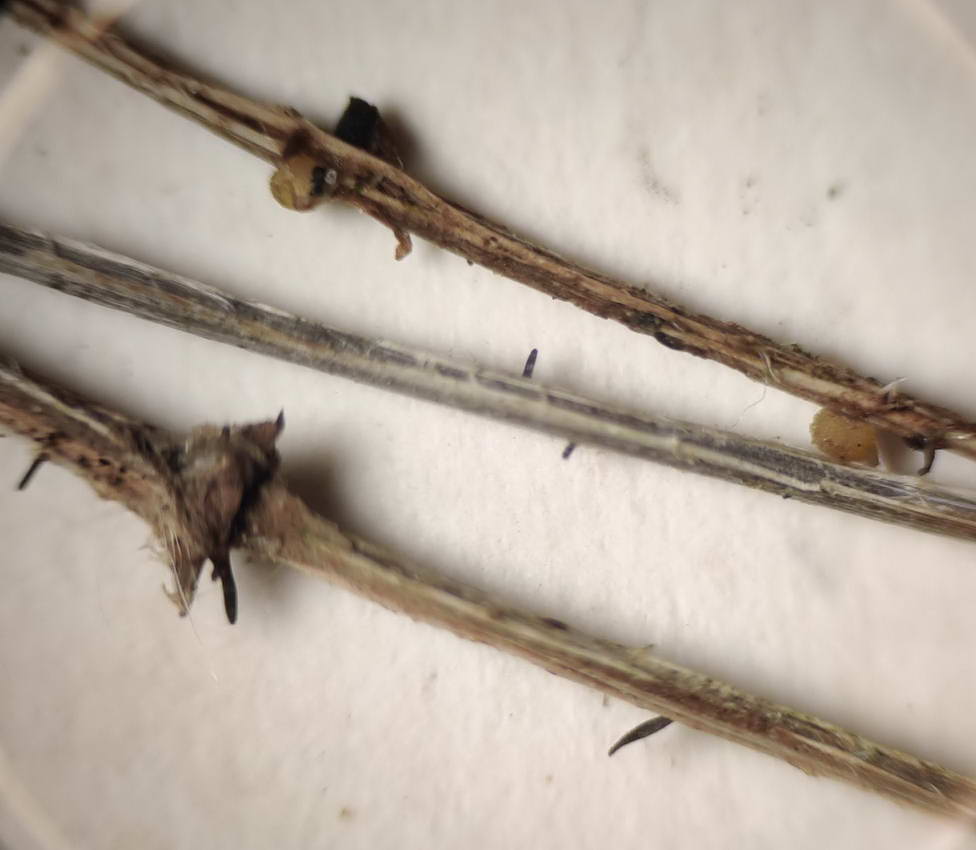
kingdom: Fungi
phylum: Ascomycota
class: Dothideomycetes
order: Acrospermales
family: Acrospermaceae
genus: Acrospermum
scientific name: Acrospermum pallidulum
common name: snerre-stængeltunge
